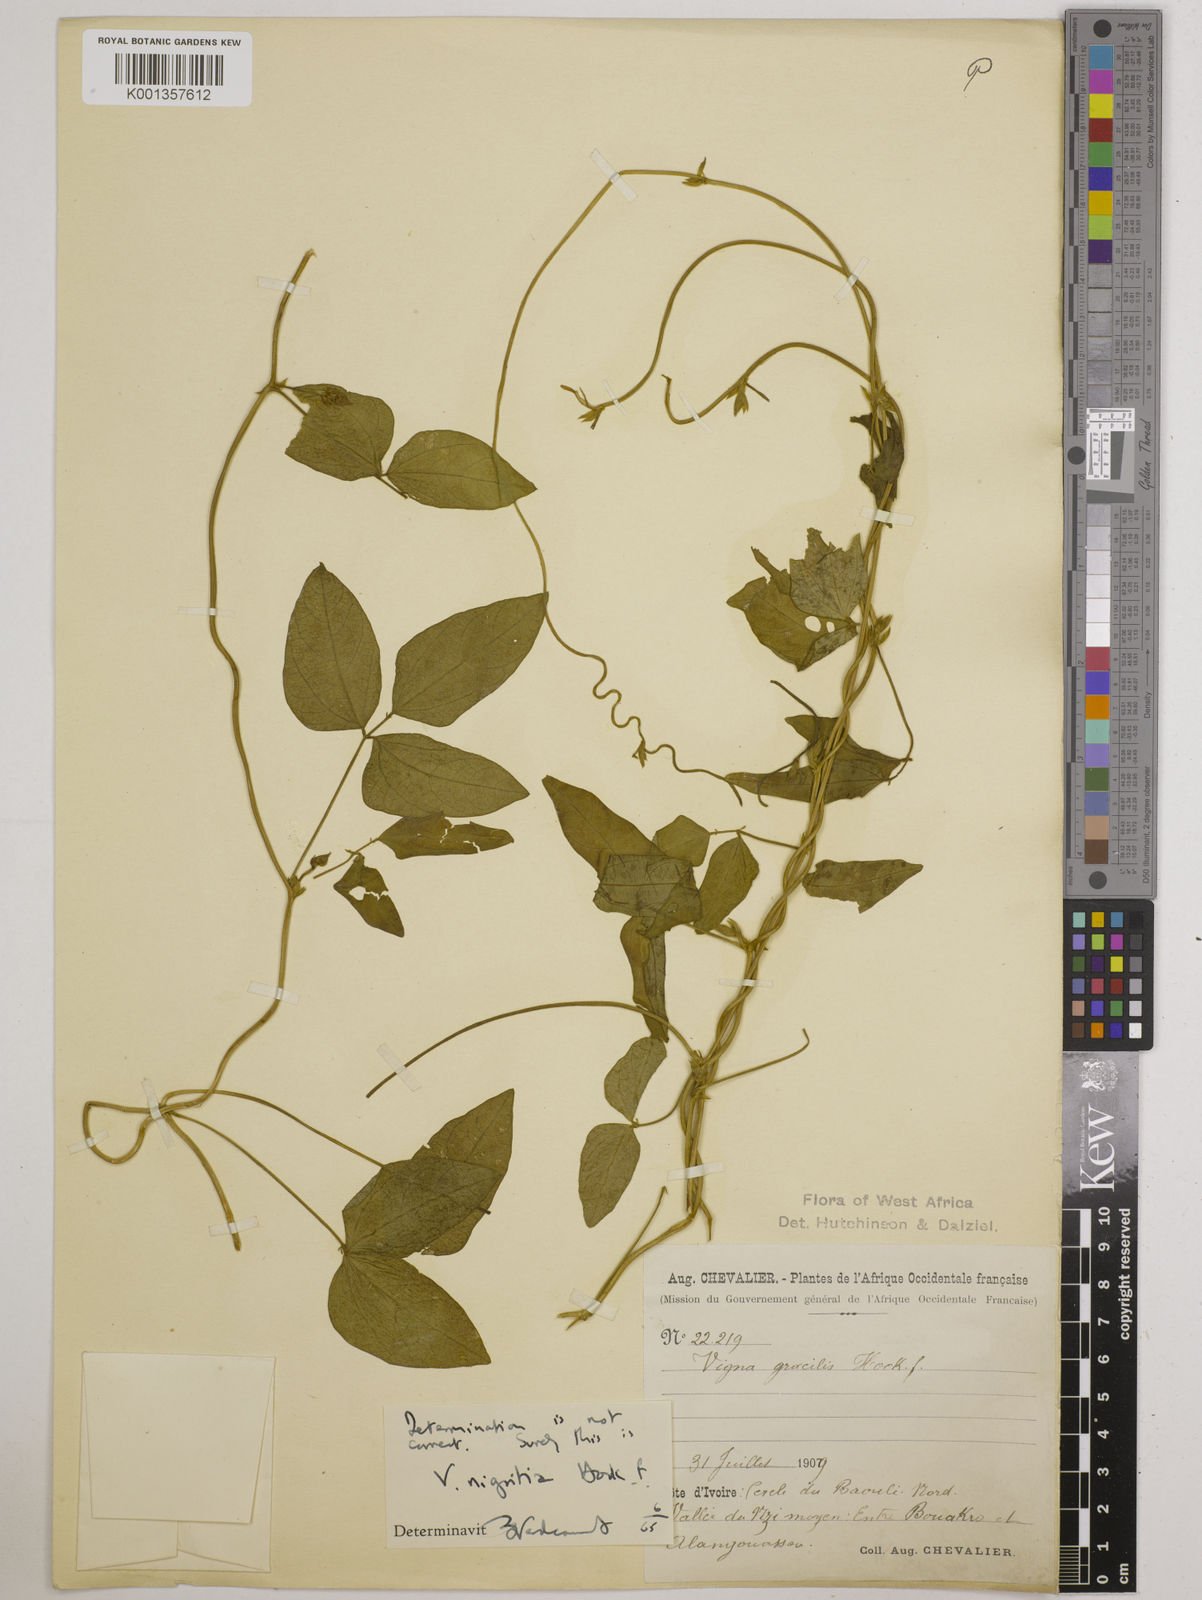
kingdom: Plantae
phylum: Tracheophyta
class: Magnoliopsida
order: Fabales
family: Fabaceae
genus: Vigna
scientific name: Vigna nigritia
